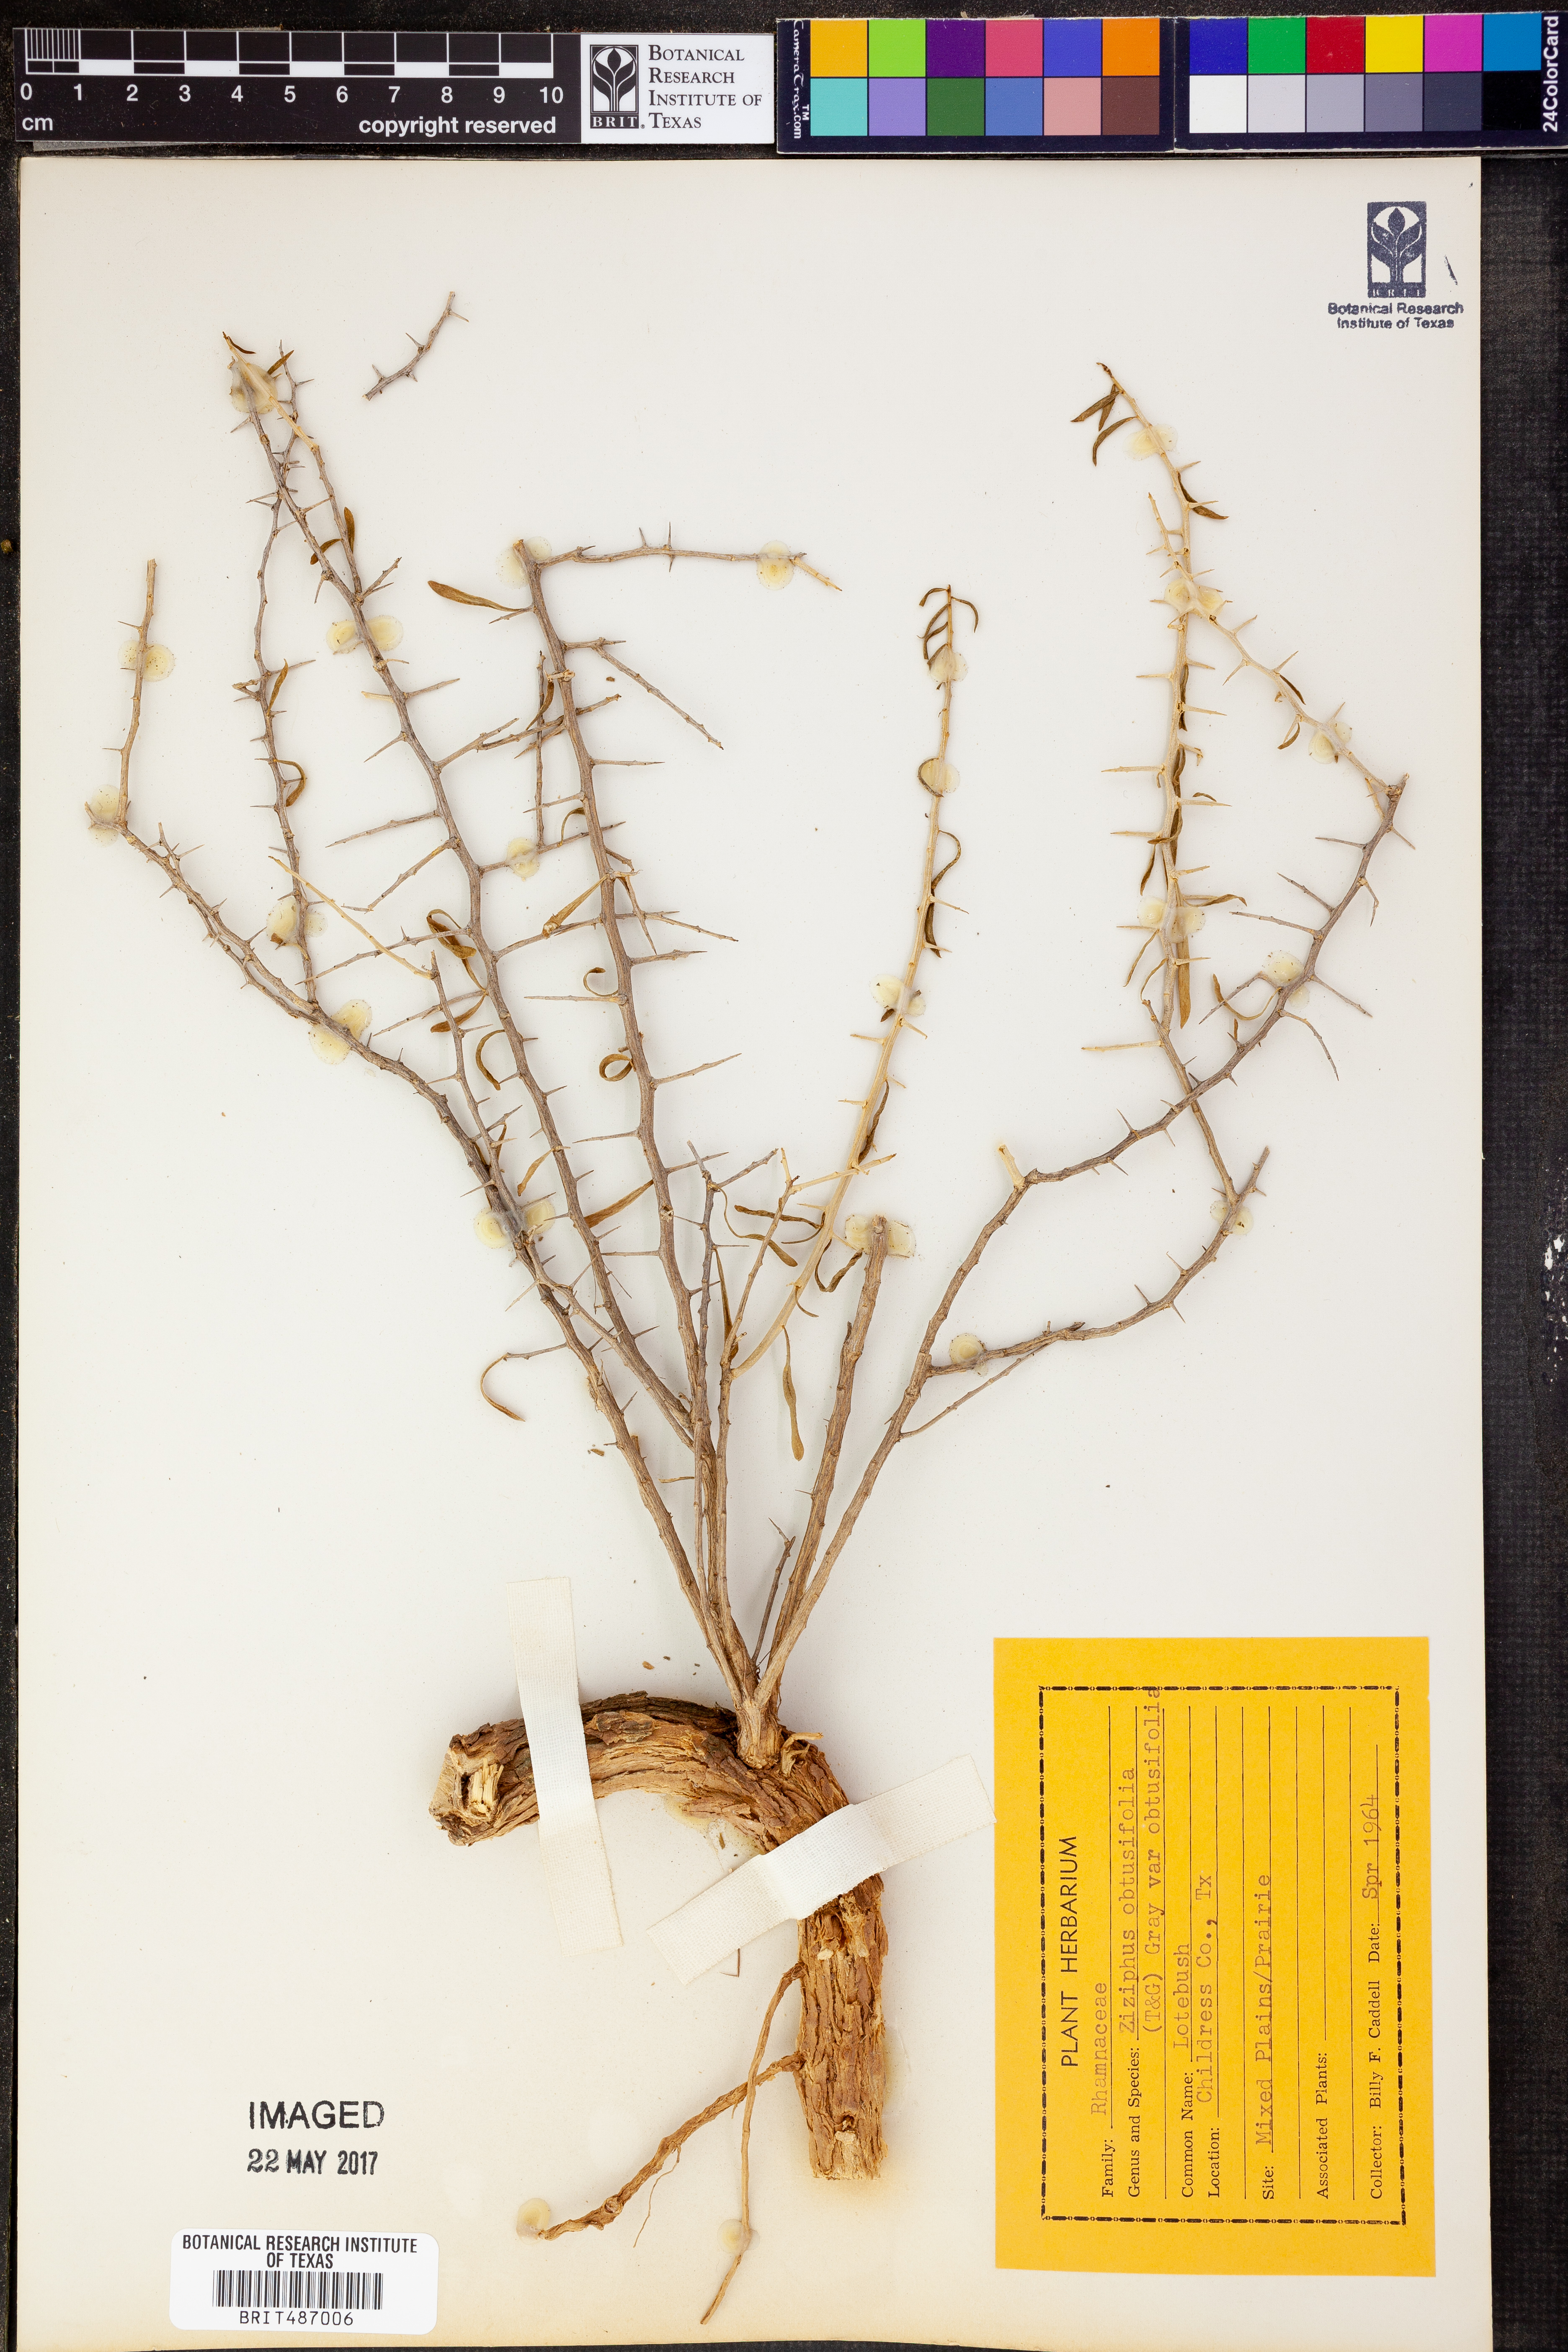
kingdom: Plantae
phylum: Tracheophyta
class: Magnoliopsida
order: Rosales
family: Rhamnaceae
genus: Sarcomphalus
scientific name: Sarcomphalus obtusifolius
